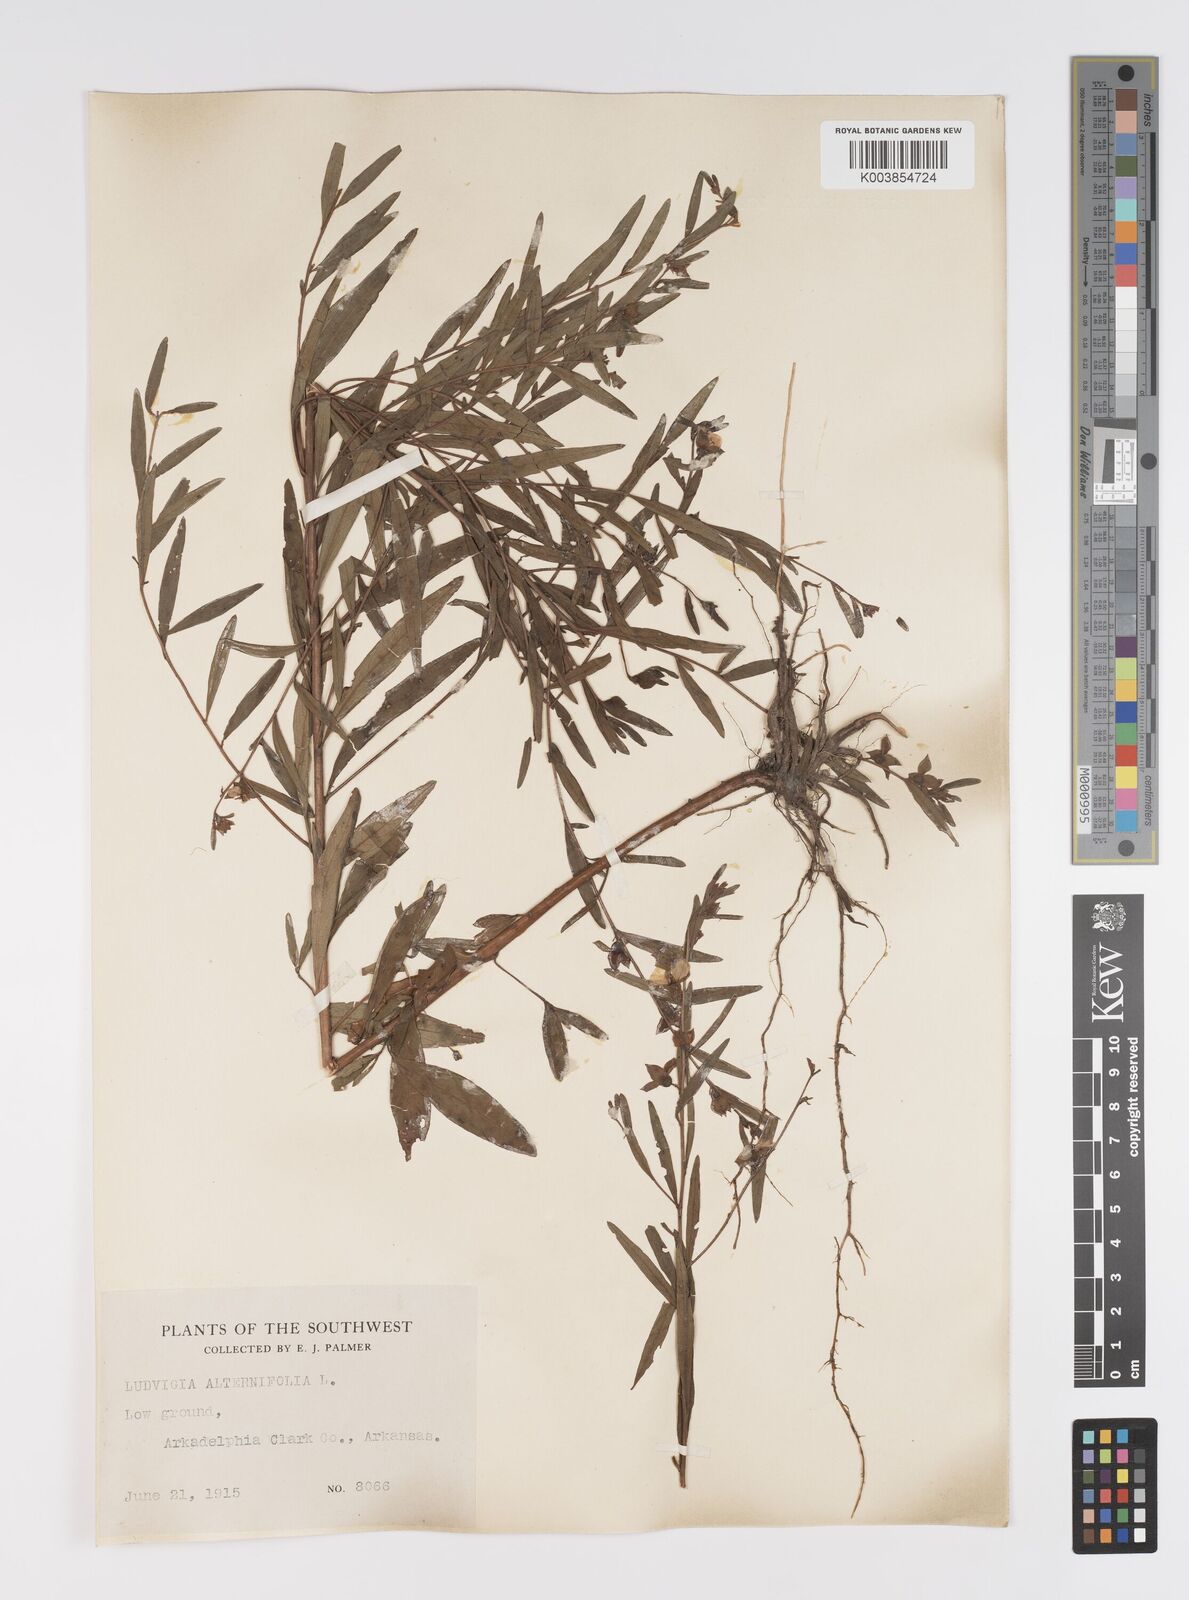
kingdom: Plantae
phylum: Tracheophyta
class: Magnoliopsida
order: Myrtales
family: Onagraceae
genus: Ludwigia
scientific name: Ludwigia alternifolia
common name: Rattlebox
